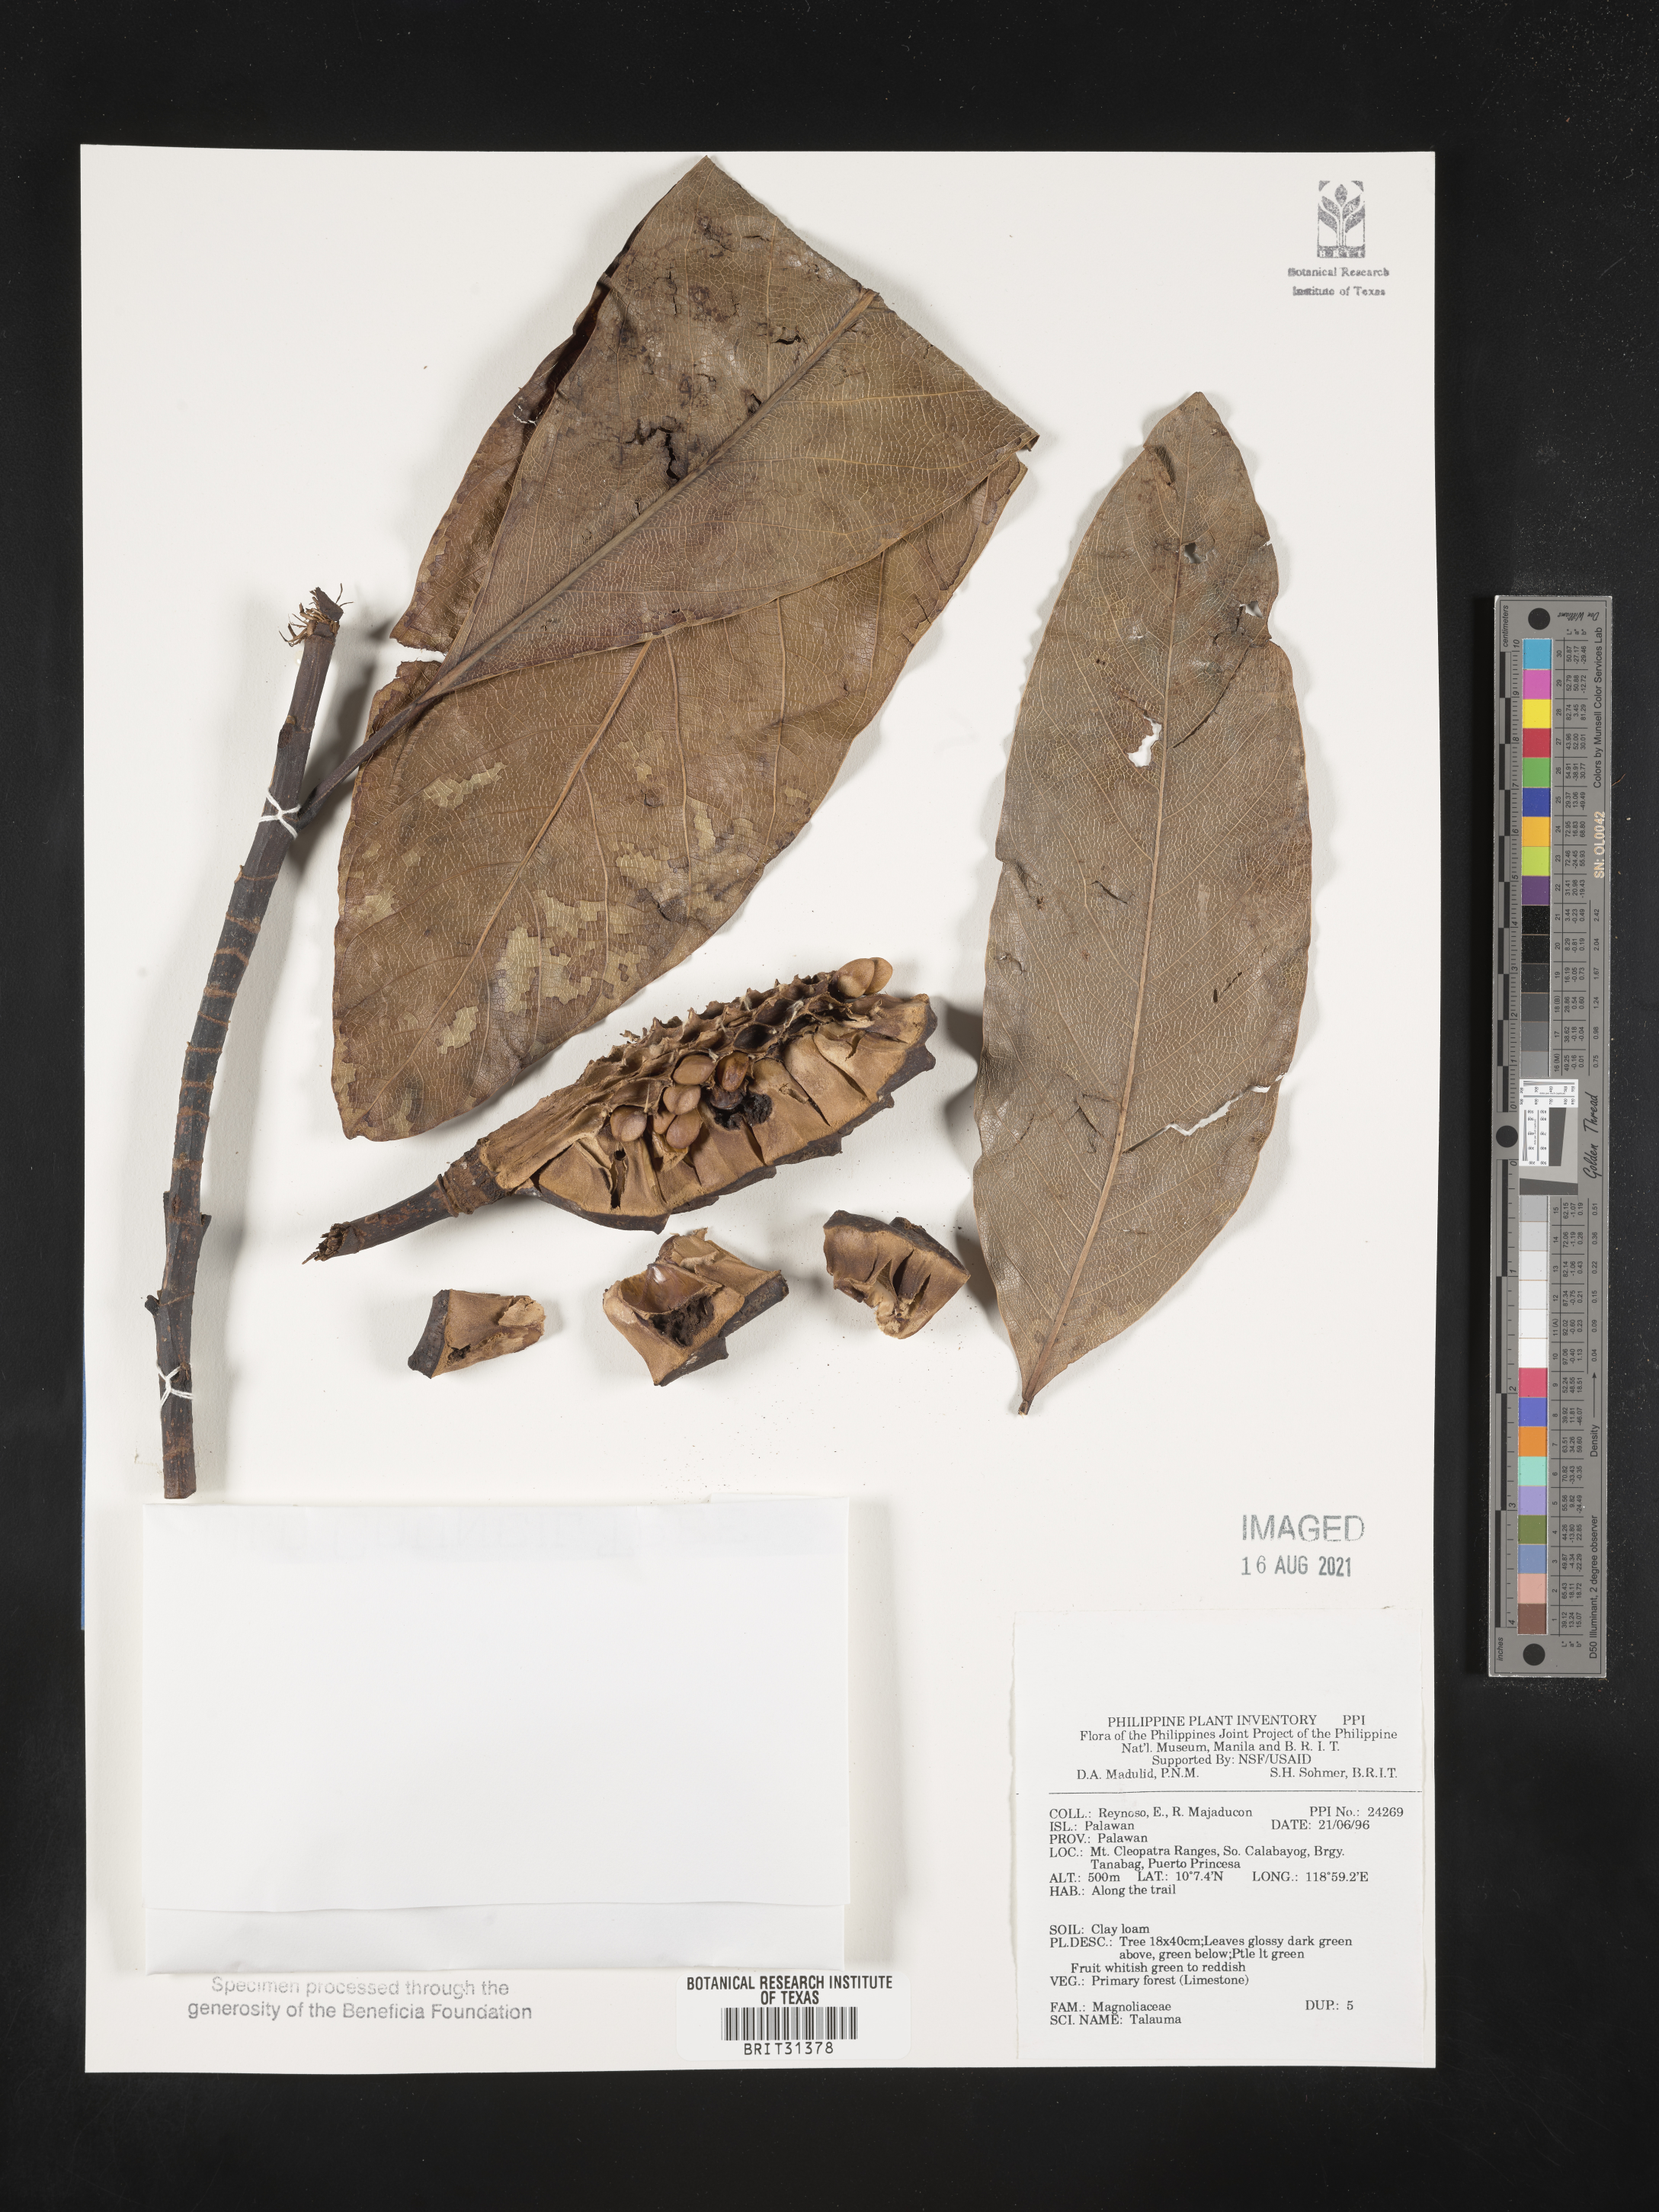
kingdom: Plantae
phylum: Tracheophyta
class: Magnoliopsida
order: Magnoliales
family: Magnoliaceae
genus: Magnolia
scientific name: Magnolia Talauma spec
